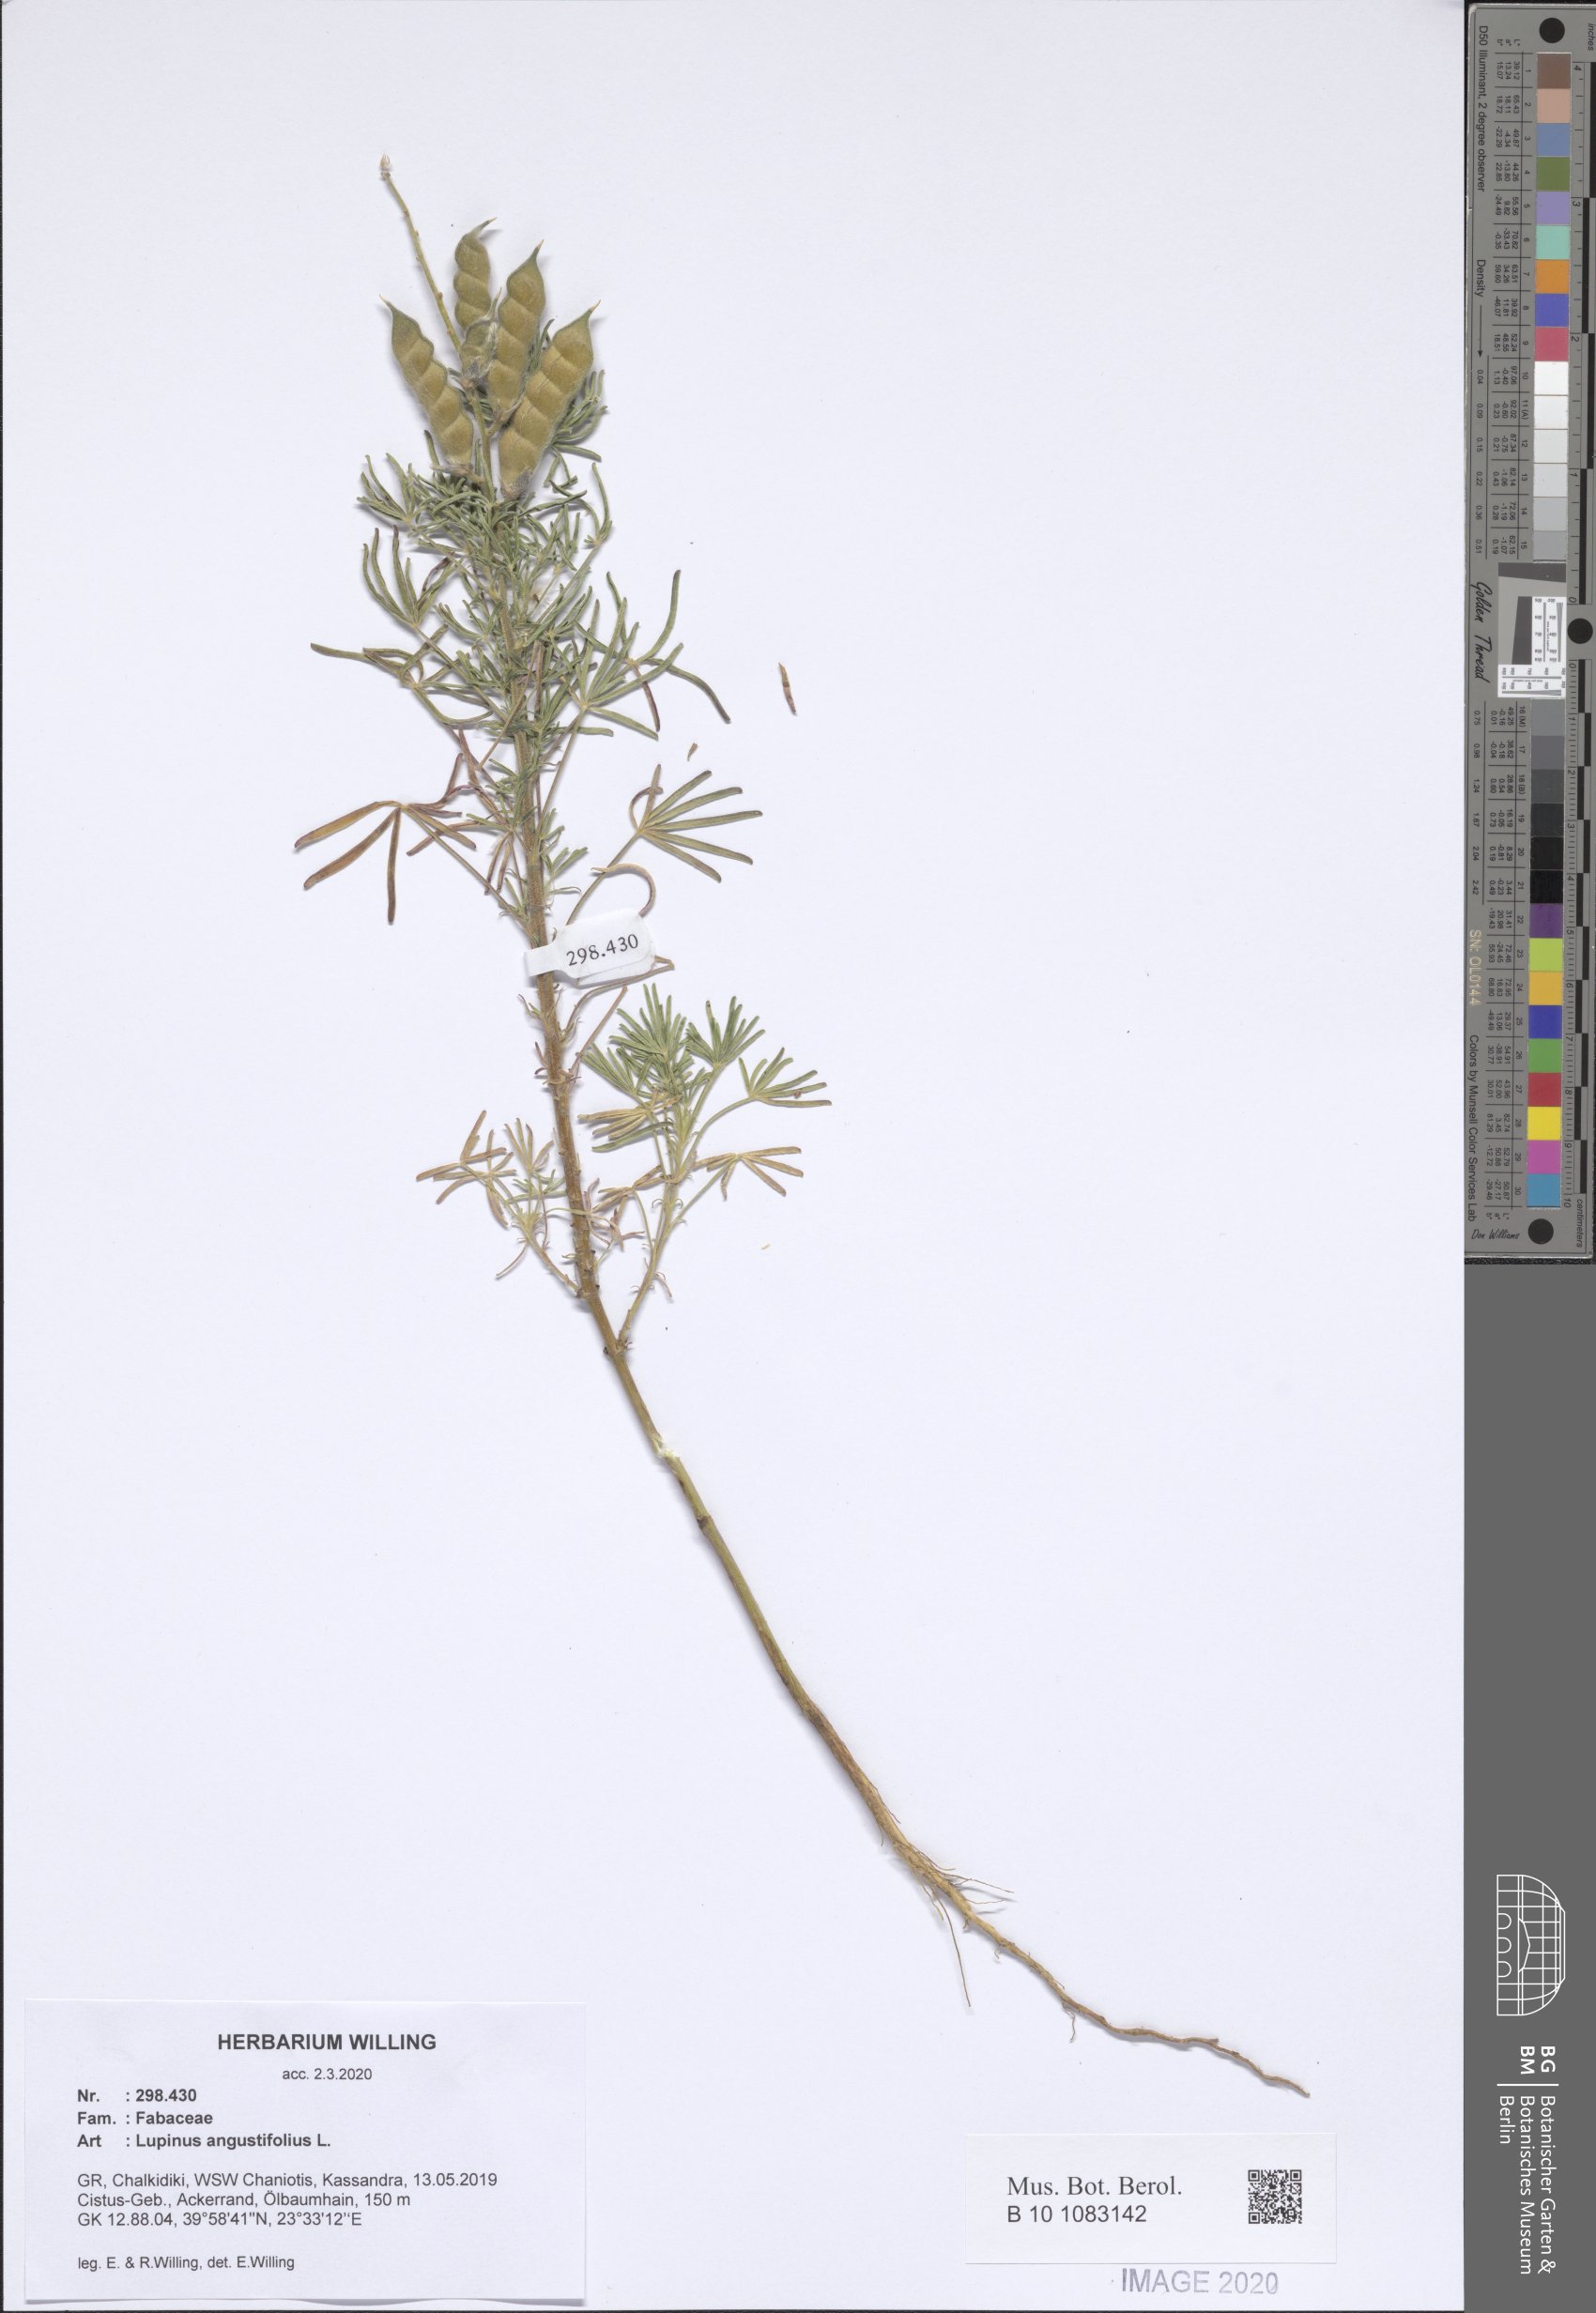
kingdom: Plantae
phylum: Tracheophyta
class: Magnoliopsida
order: Fabales
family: Fabaceae
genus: Lupinus
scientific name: Lupinus angustifolius
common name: Narrow-leaved lupin
